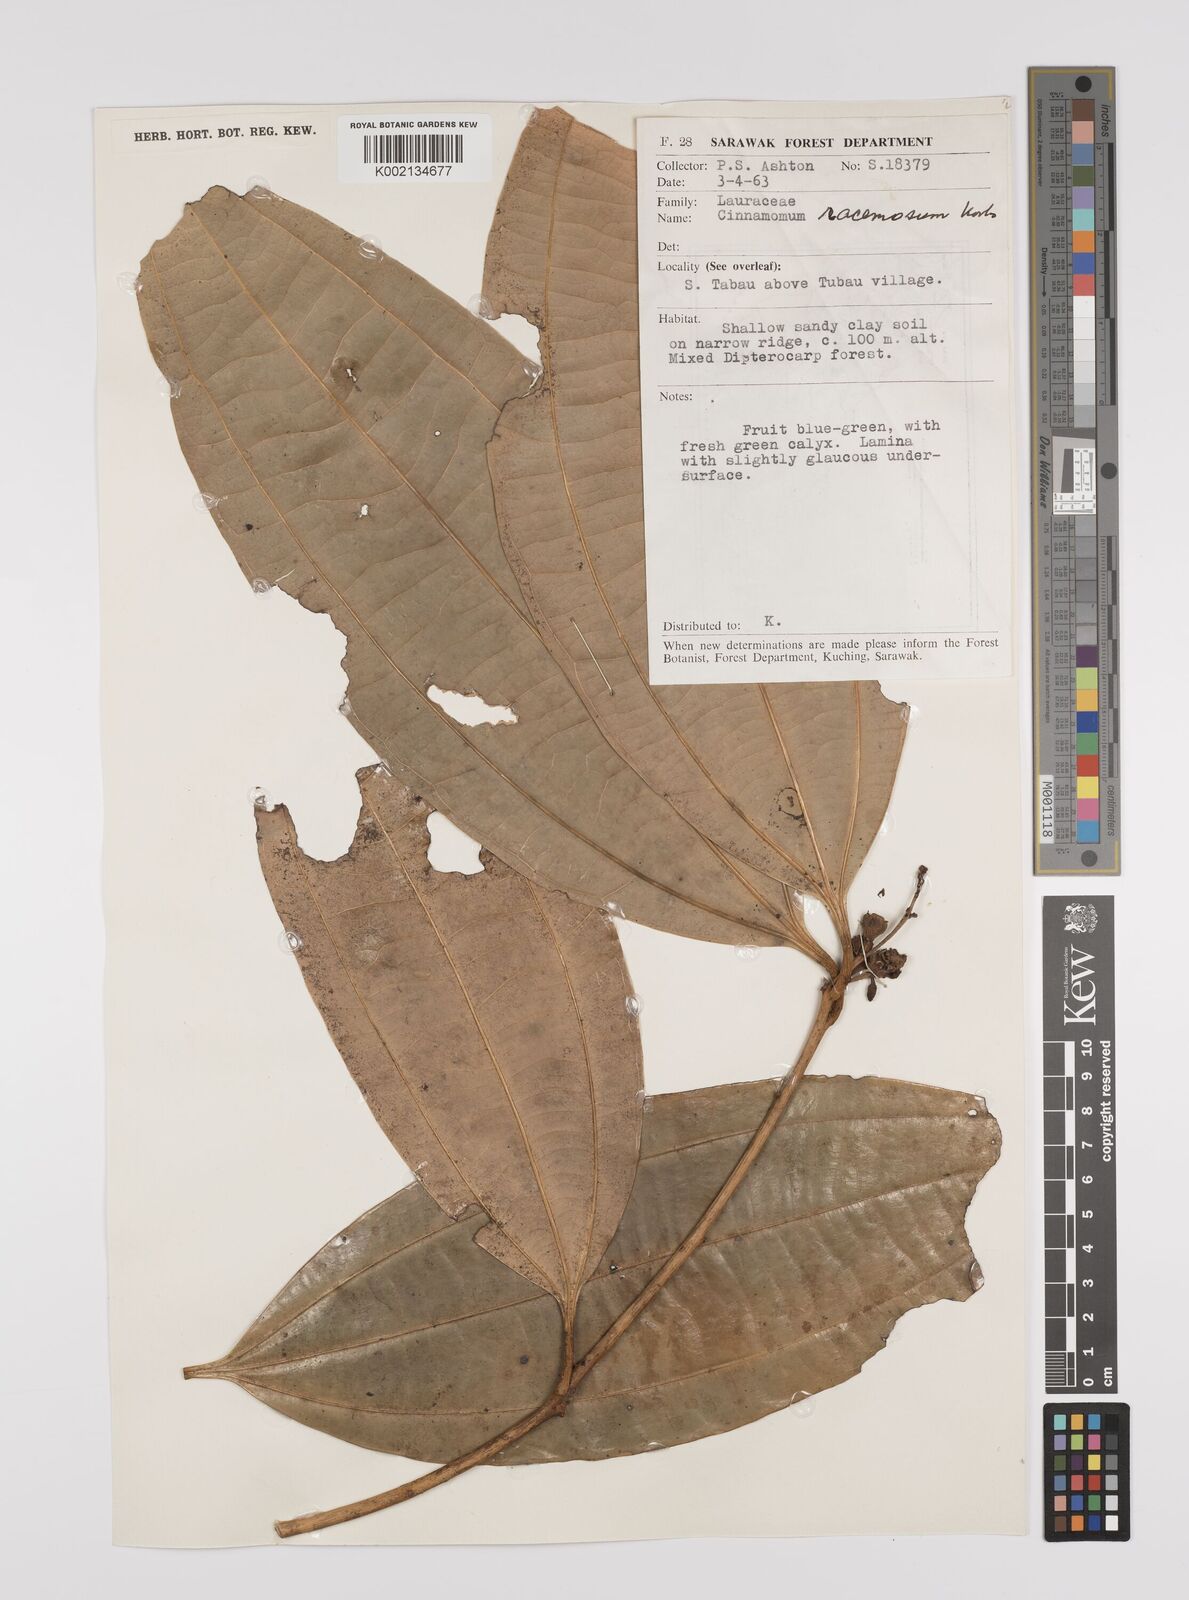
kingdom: Plantae
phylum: Tracheophyta
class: Magnoliopsida
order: Laurales
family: Lauraceae
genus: Cinnamomum
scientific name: Cinnamomum racemosum
